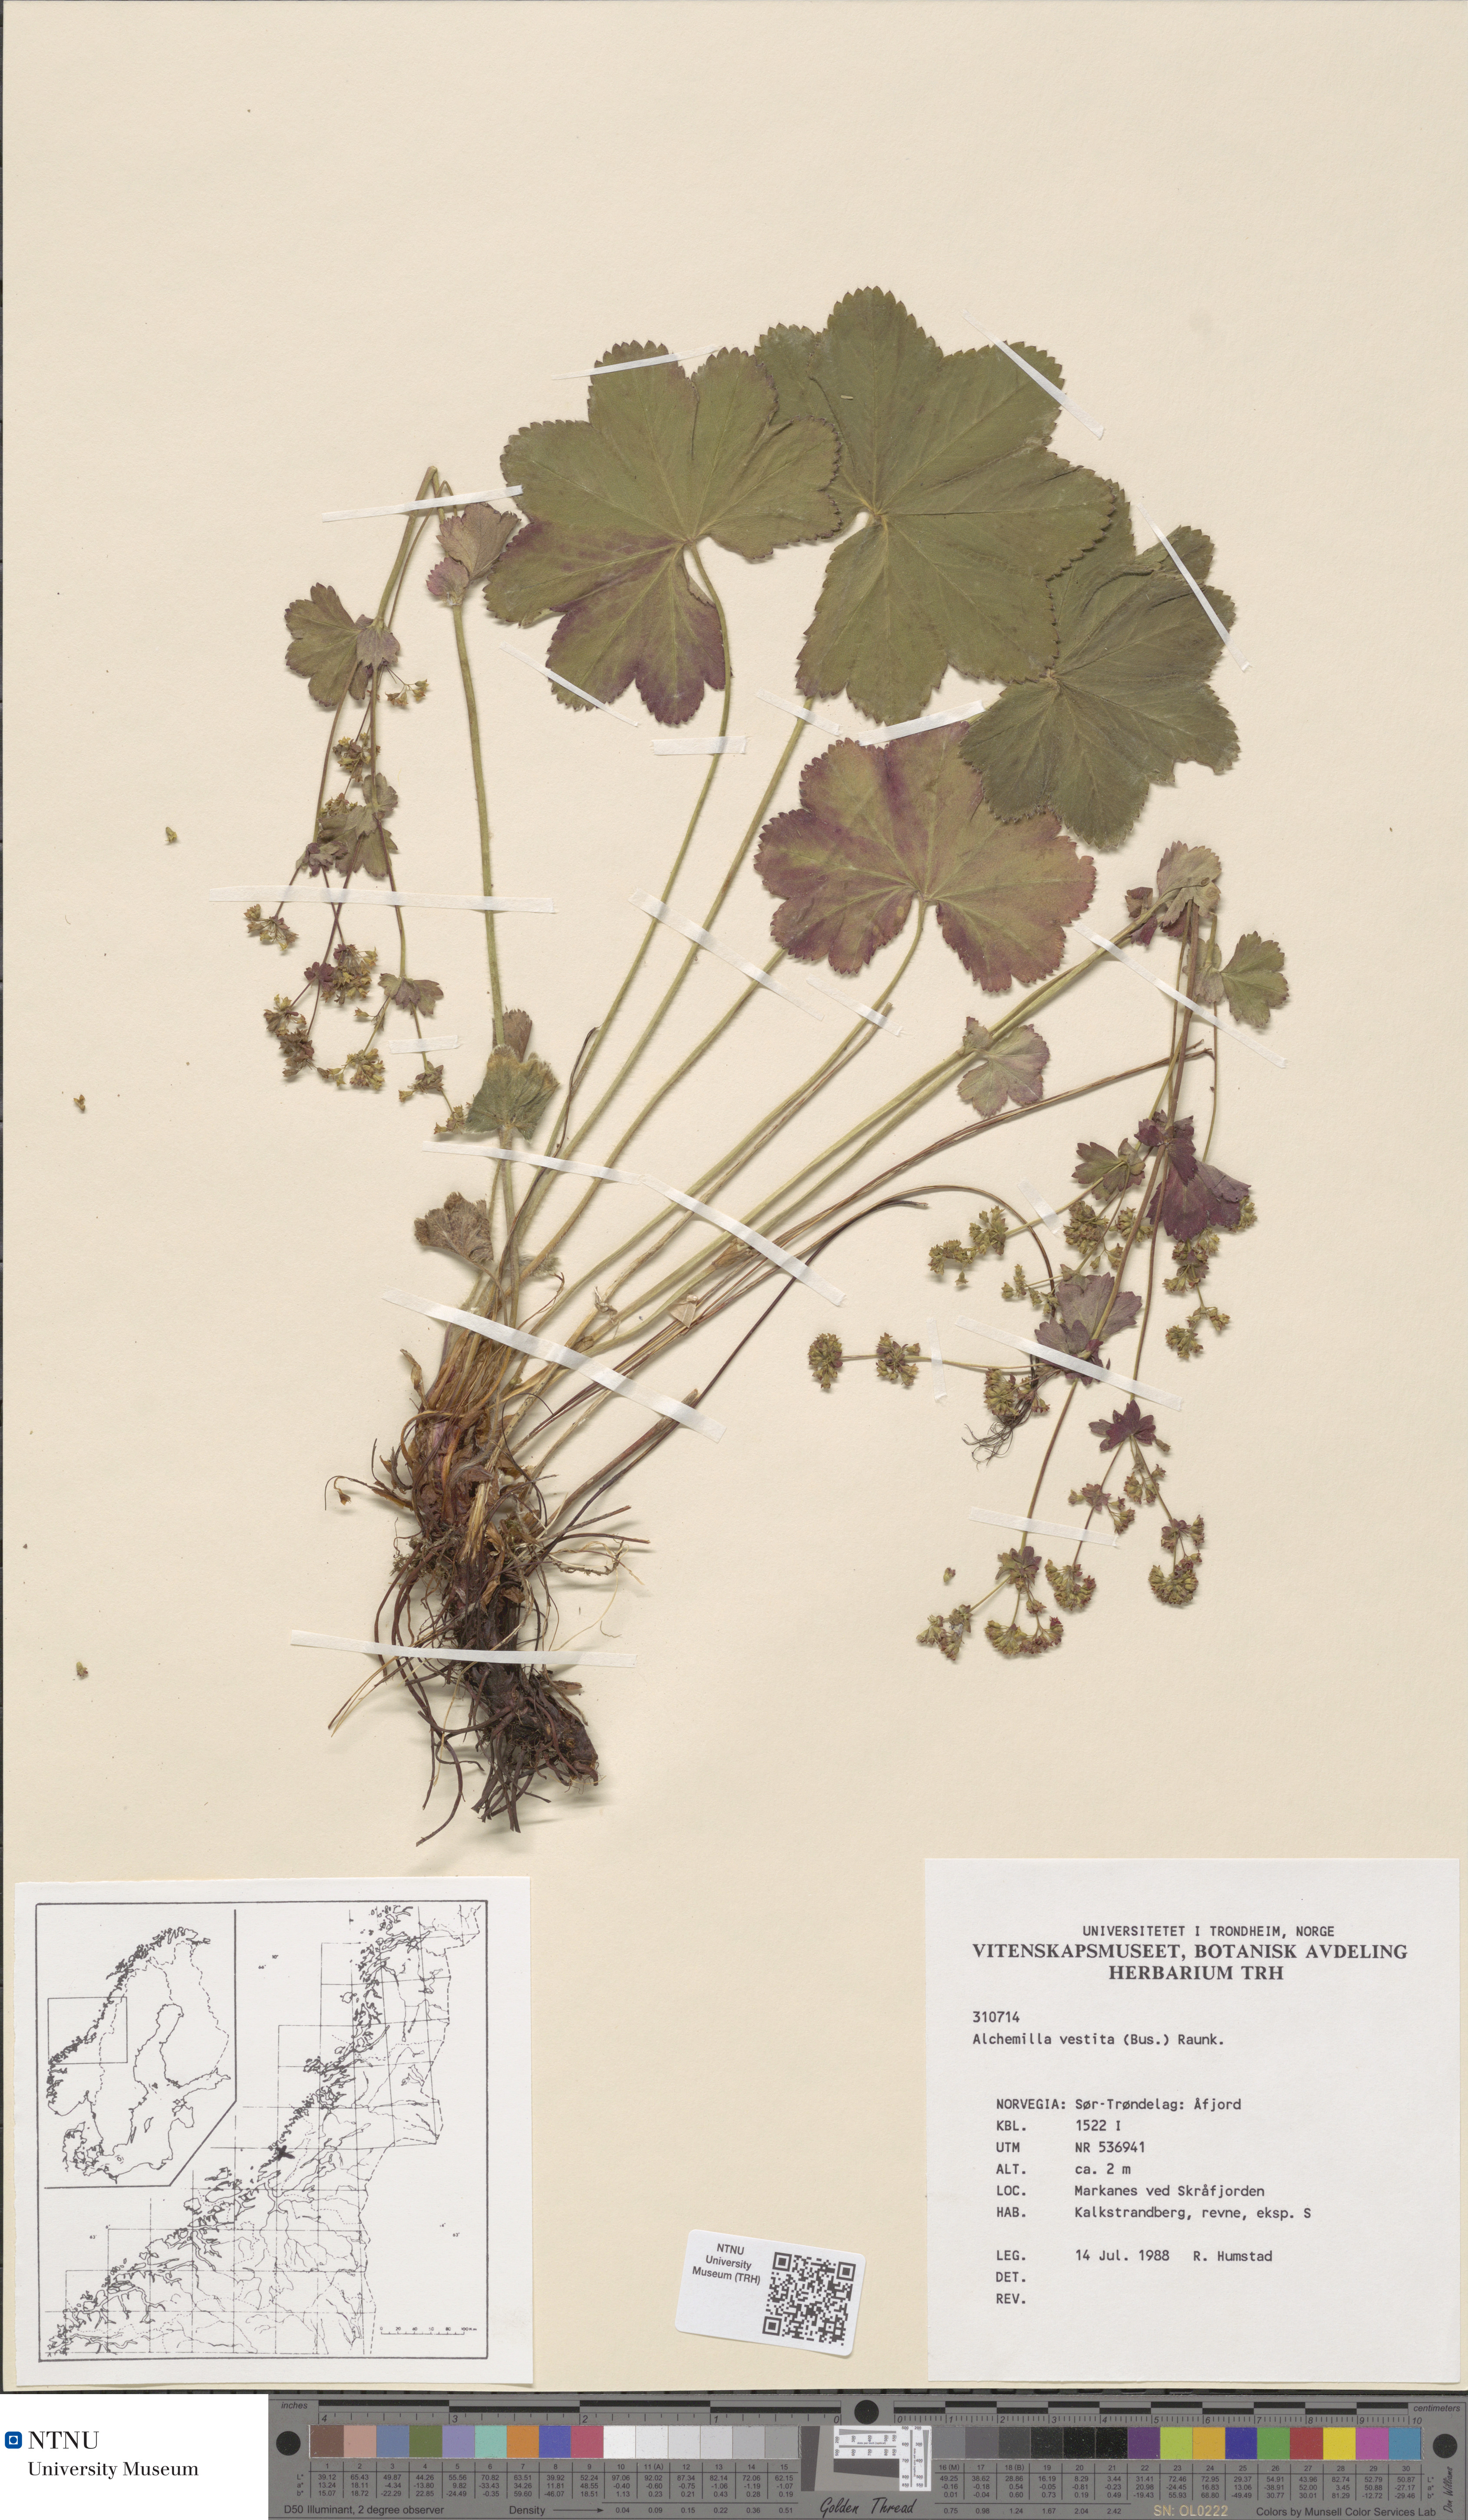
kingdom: Plantae
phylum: Tracheophyta
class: Magnoliopsida
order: Rosales
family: Rosaceae
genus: Alchemilla
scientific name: Alchemilla filicaulis
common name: Hairy lady's-mantle
